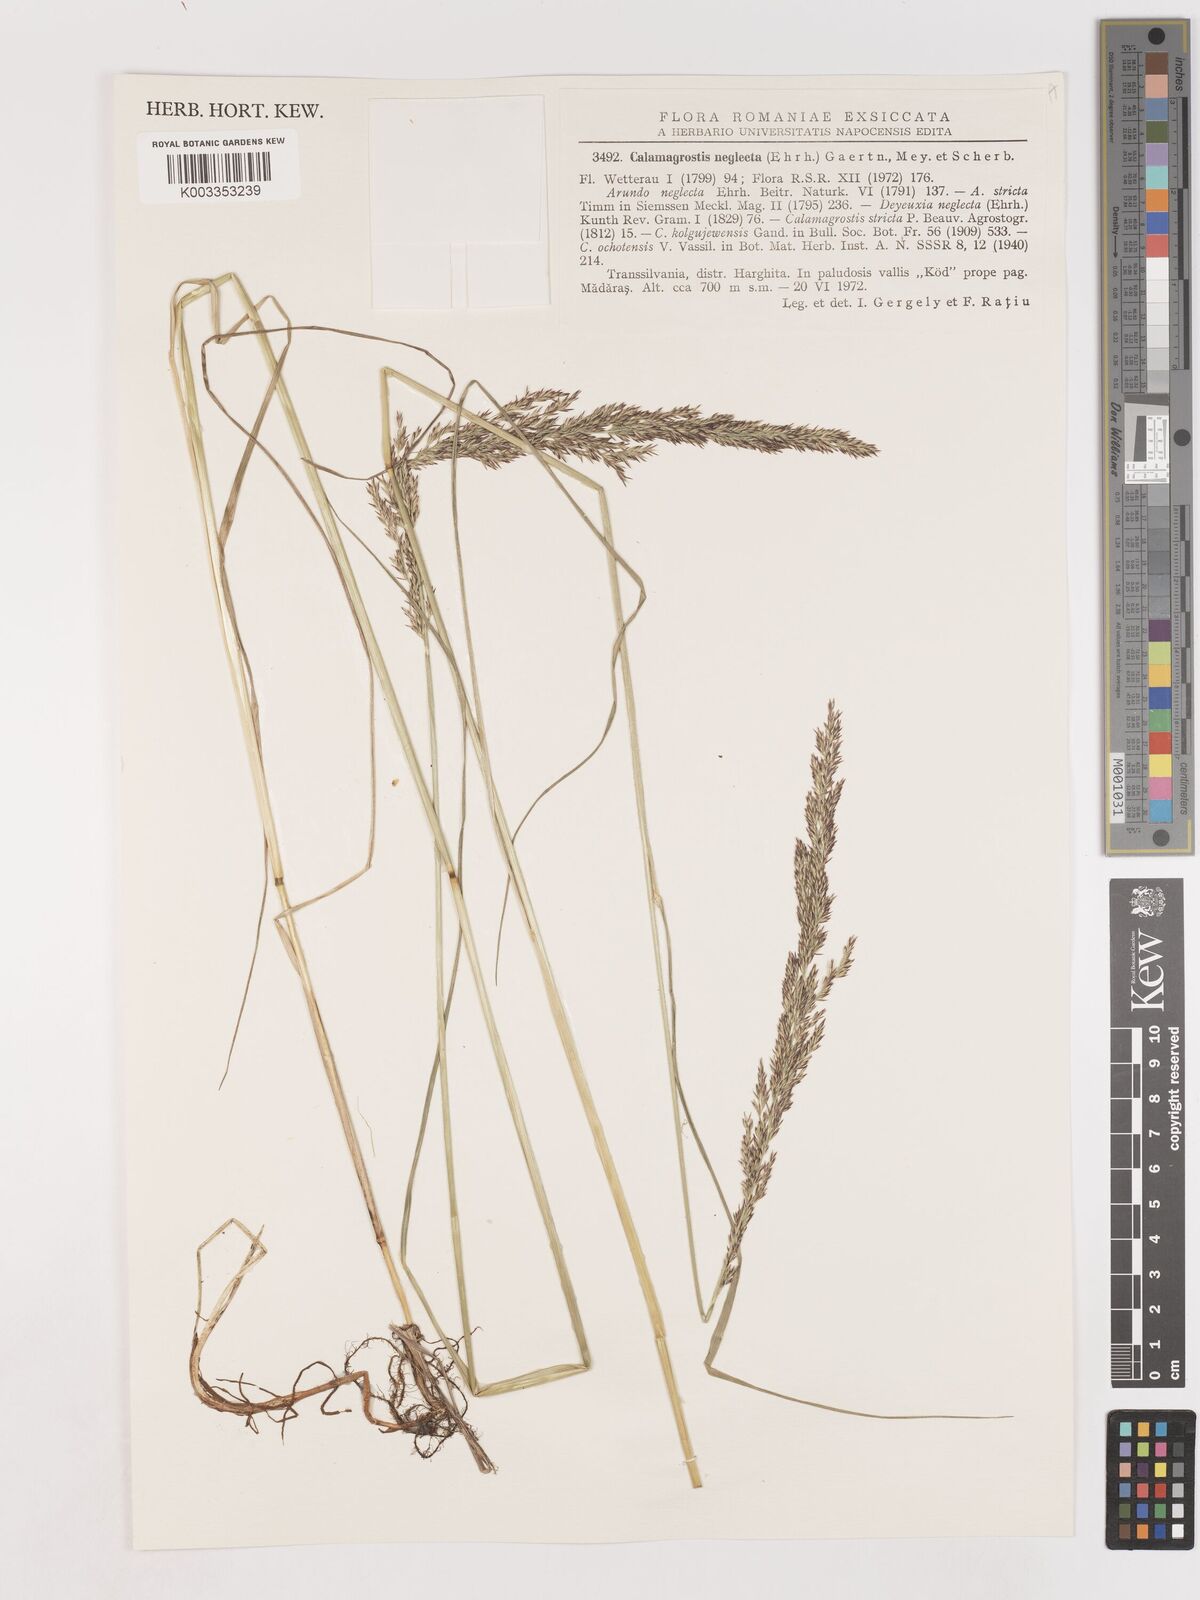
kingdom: Plantae
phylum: Tracheophyta
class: Liliopsida
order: Poales
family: Poaceae
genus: Cinnagrostis
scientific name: Cinnagrostis recta
